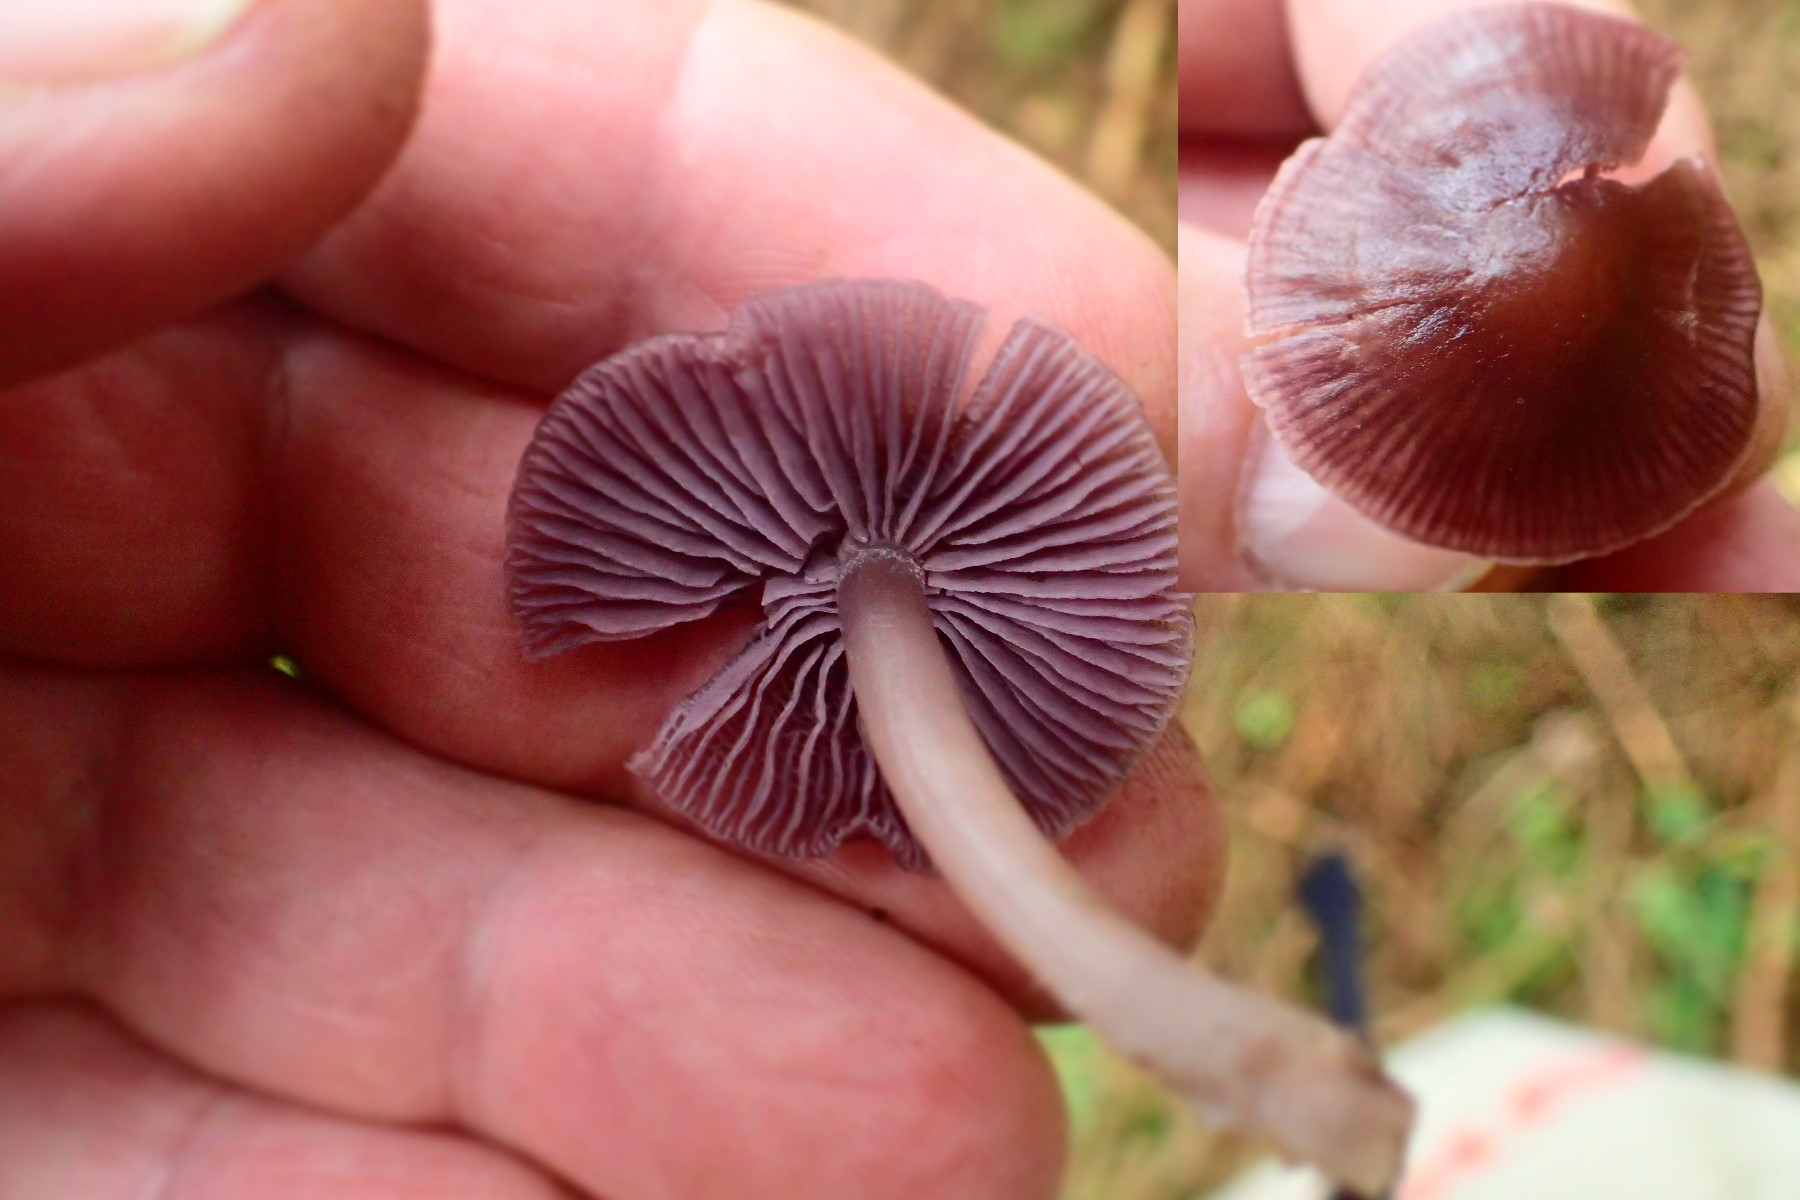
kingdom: Fungi
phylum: Basidiomycota
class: Agaricomycetes
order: Agaricales
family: Mycenaceae
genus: Prunulus
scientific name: Prunulus diosmus
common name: tobaks-huesvamp
